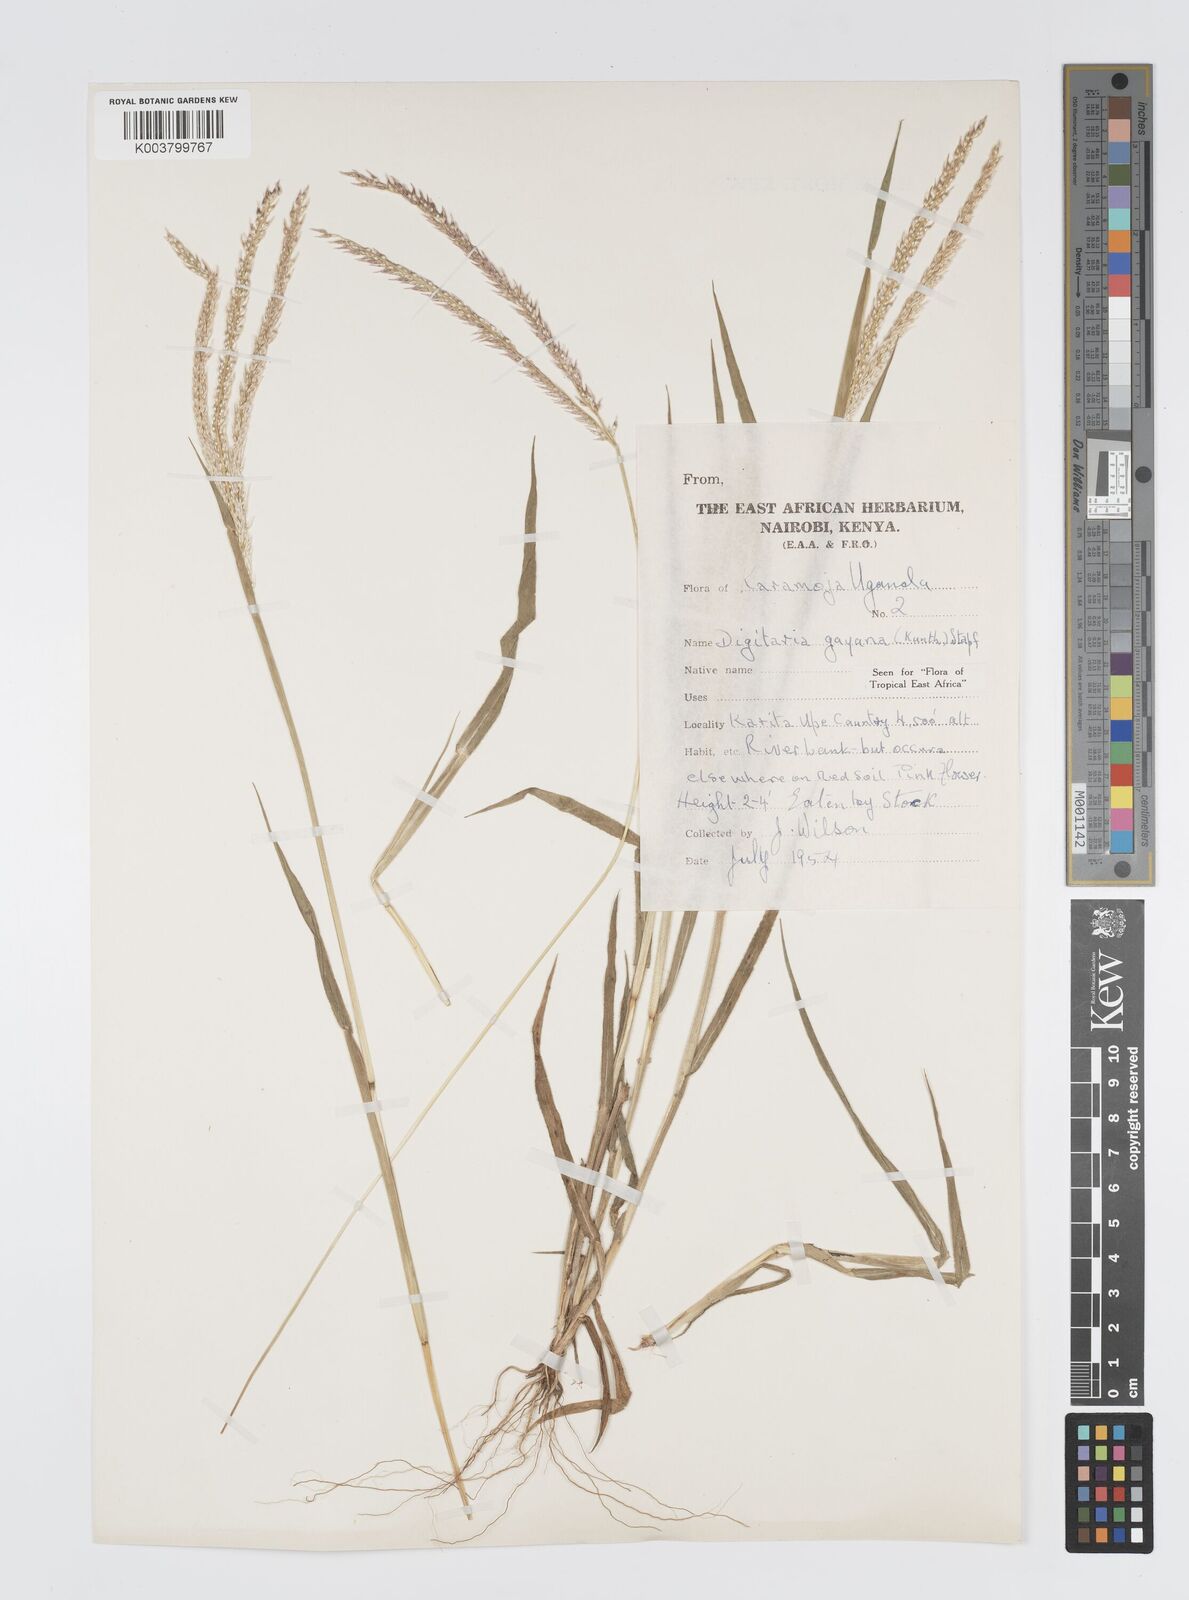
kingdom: Plantae
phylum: Tracheophyta
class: Liliopsida
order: Poales
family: Poaceae
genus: Digitaria
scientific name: Digitaria gayana
